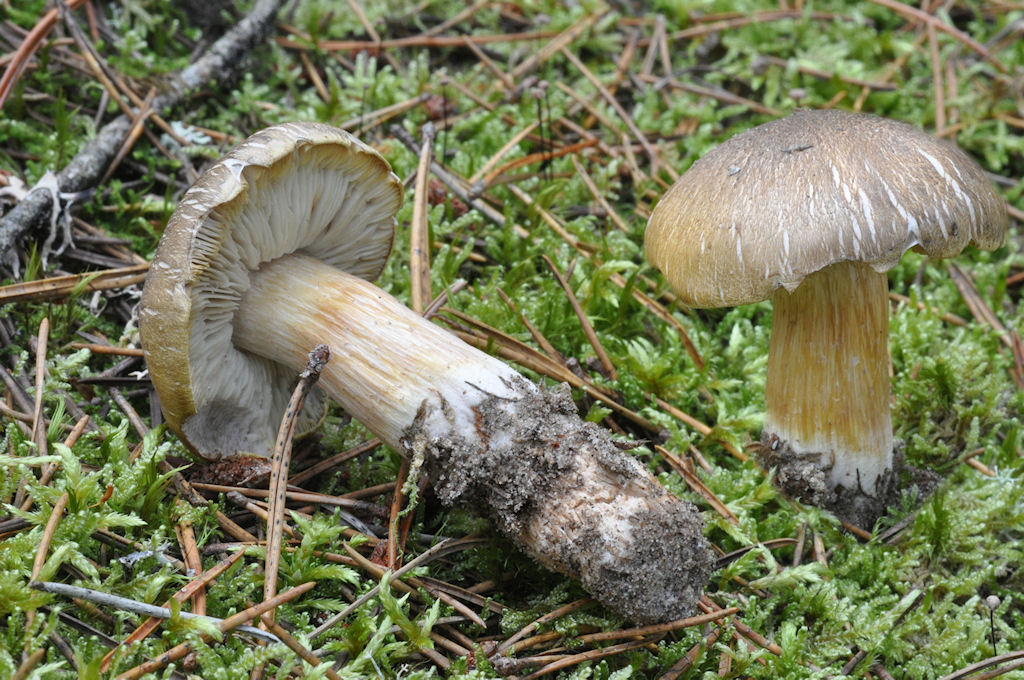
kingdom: Fungi
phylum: Basidiomycota
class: Agaricomycetes
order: Agaricales
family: Tricholomataceae
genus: Tricholoma
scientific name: Tricholoma arvernense
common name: kantet ridderhat
